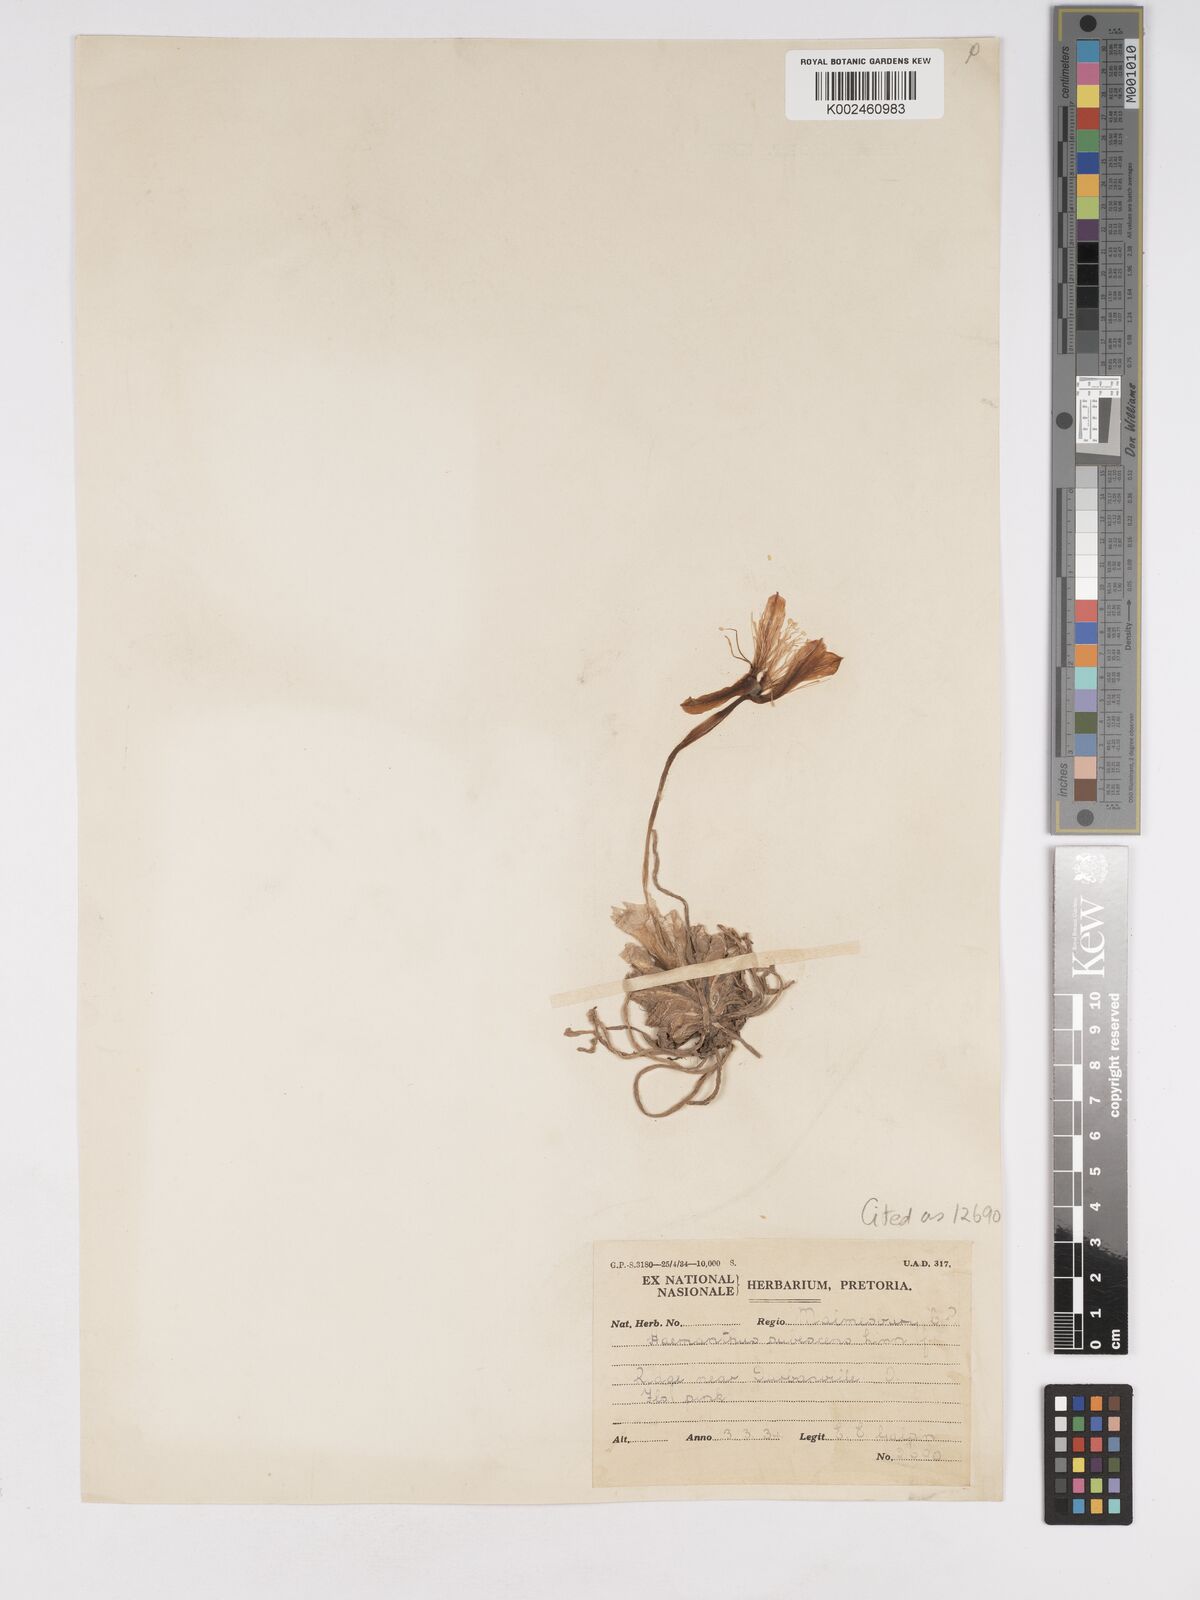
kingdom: Plantae
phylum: Tracheophyta
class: Liliopsida
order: Asparagales
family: Amaryllidaceae
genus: Haemanthus
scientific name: Haemanthus pubescens
